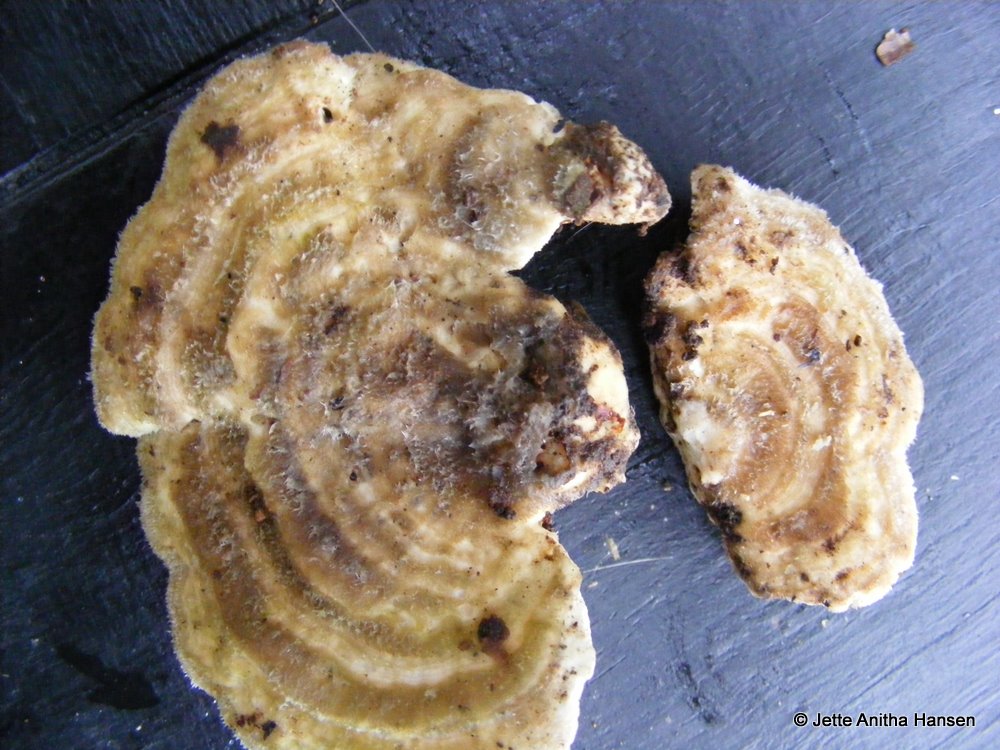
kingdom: Fungi
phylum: Basidiomycota
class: Agaricomycetes
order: Polyporales
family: Polyporaceae
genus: Lenzites
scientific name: Lenzites betulinus
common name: birke-læderporesvamp
